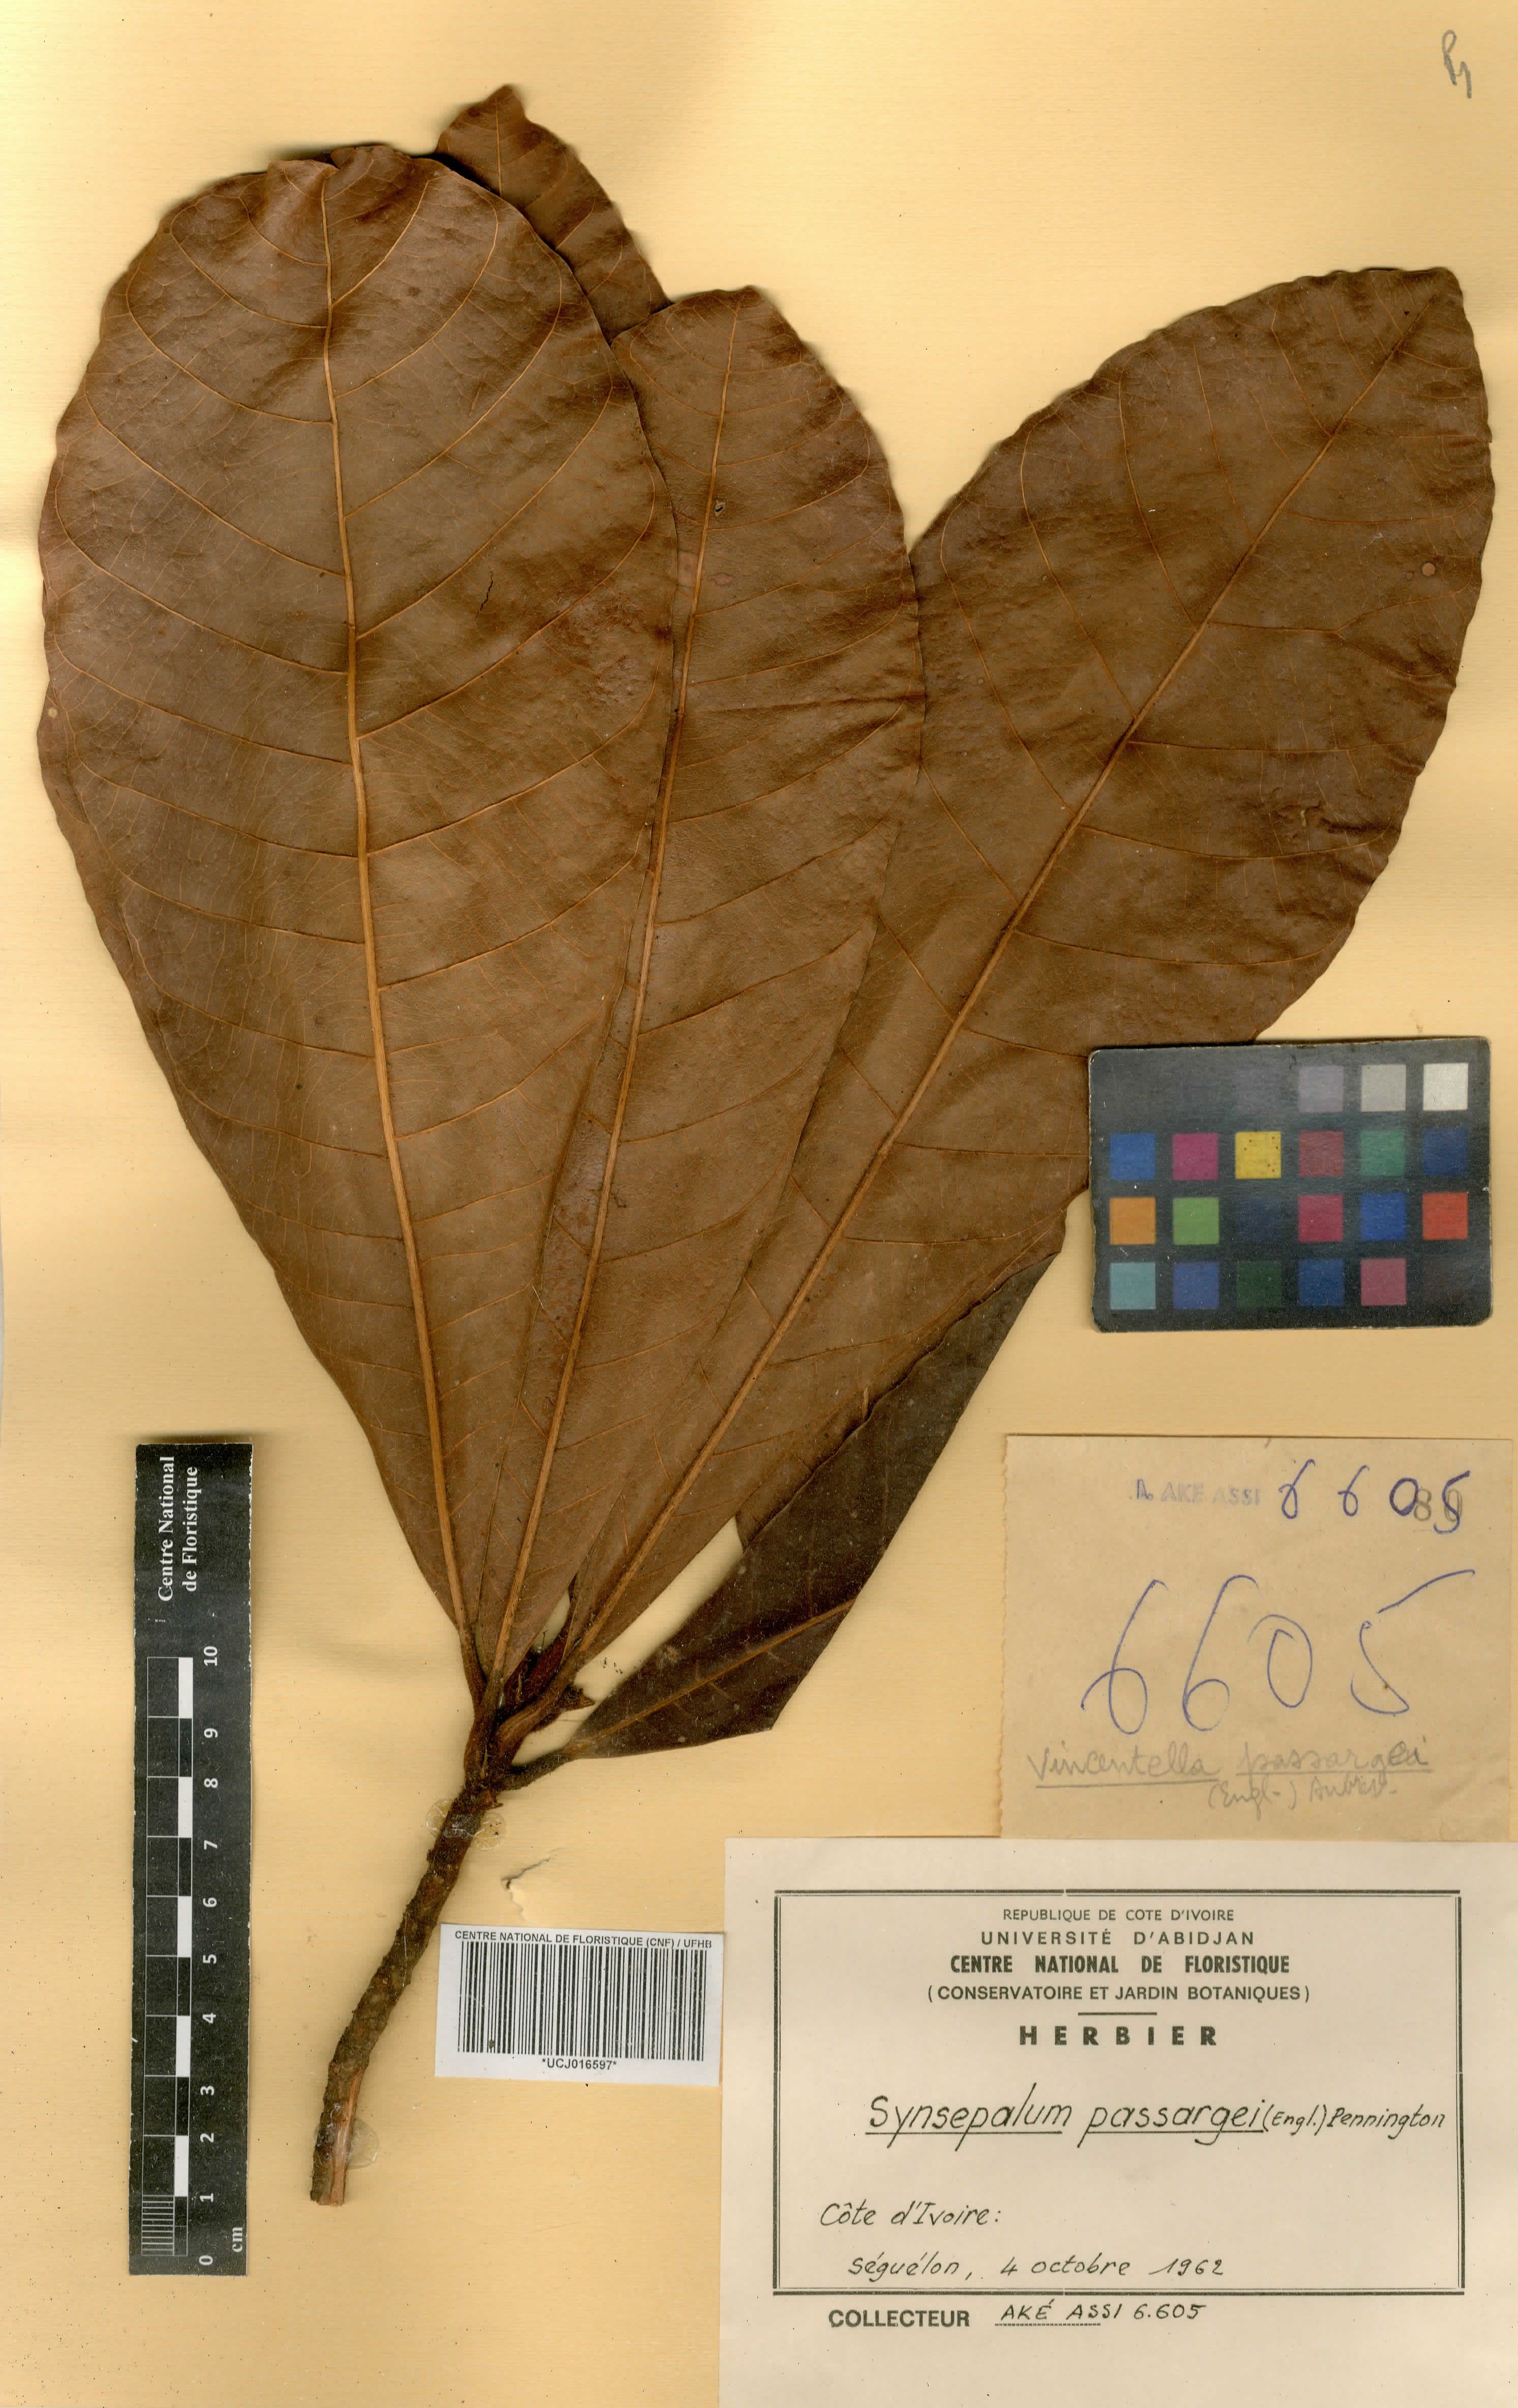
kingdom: Plantae
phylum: Tracheophyta
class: Magnoliopsida
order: Ericales
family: Sapotaceae
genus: Synsepalum
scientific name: Synsepalum passargei
